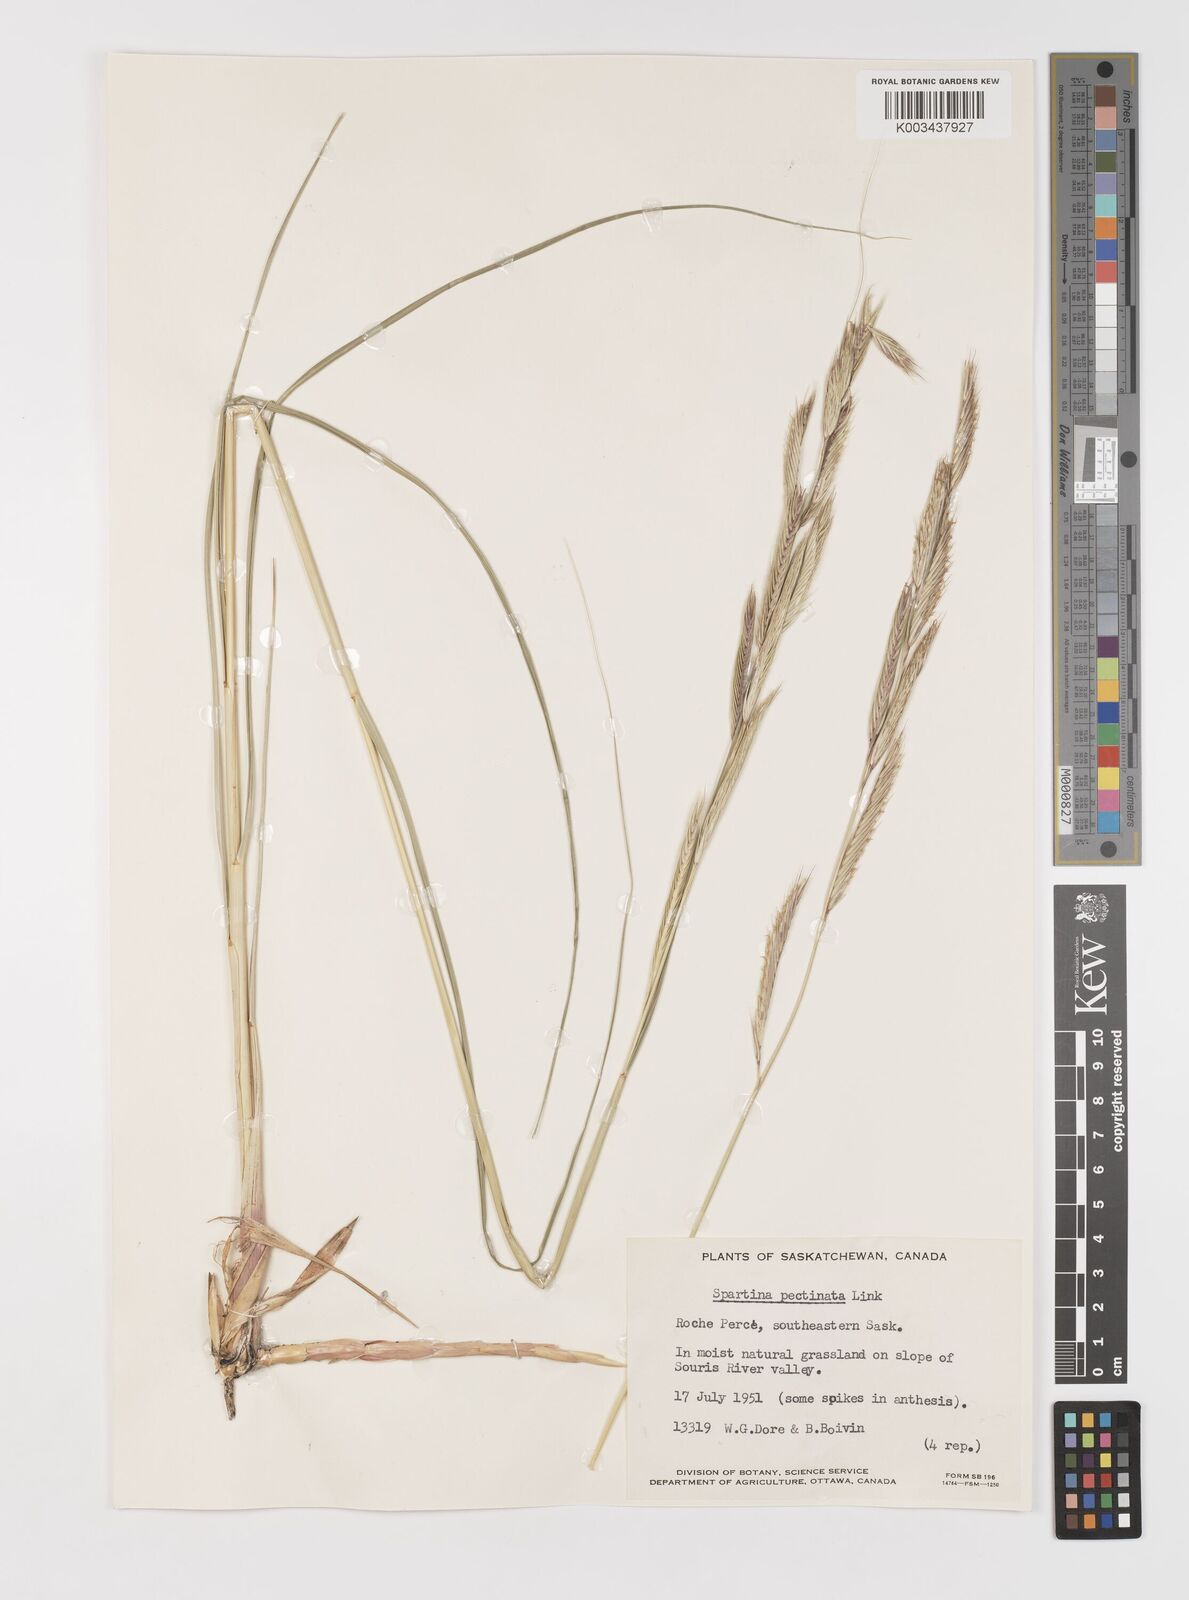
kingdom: Plantae
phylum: Tracheophyta
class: Liliopsida
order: Poales
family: Poaceae
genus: Sporobolus
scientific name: Sporobolus michauxianus
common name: Freshwater cordgrass
